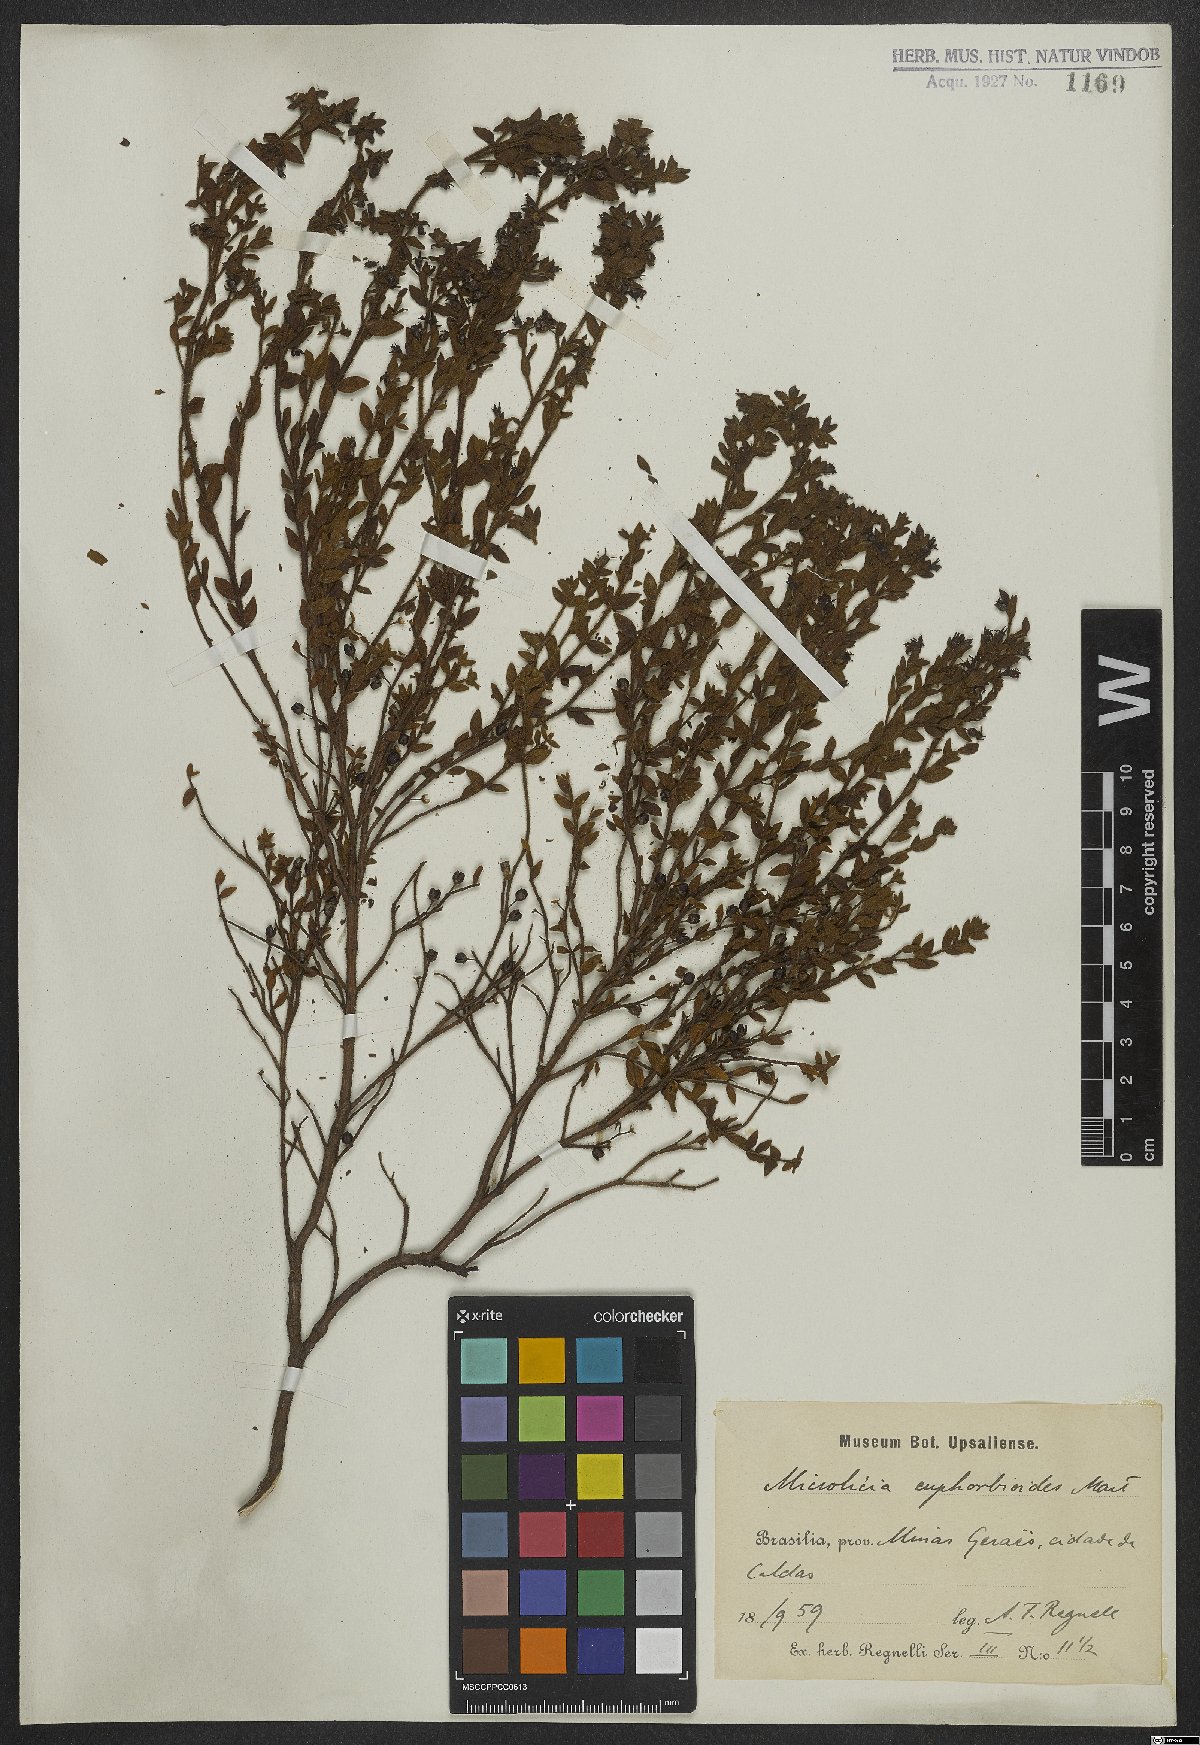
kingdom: Plantae
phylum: Tracheophyta
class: Magnoliopsida
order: Myrtales
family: Melastomataceae
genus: Microlicia
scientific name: Microlicia euphorbioides
